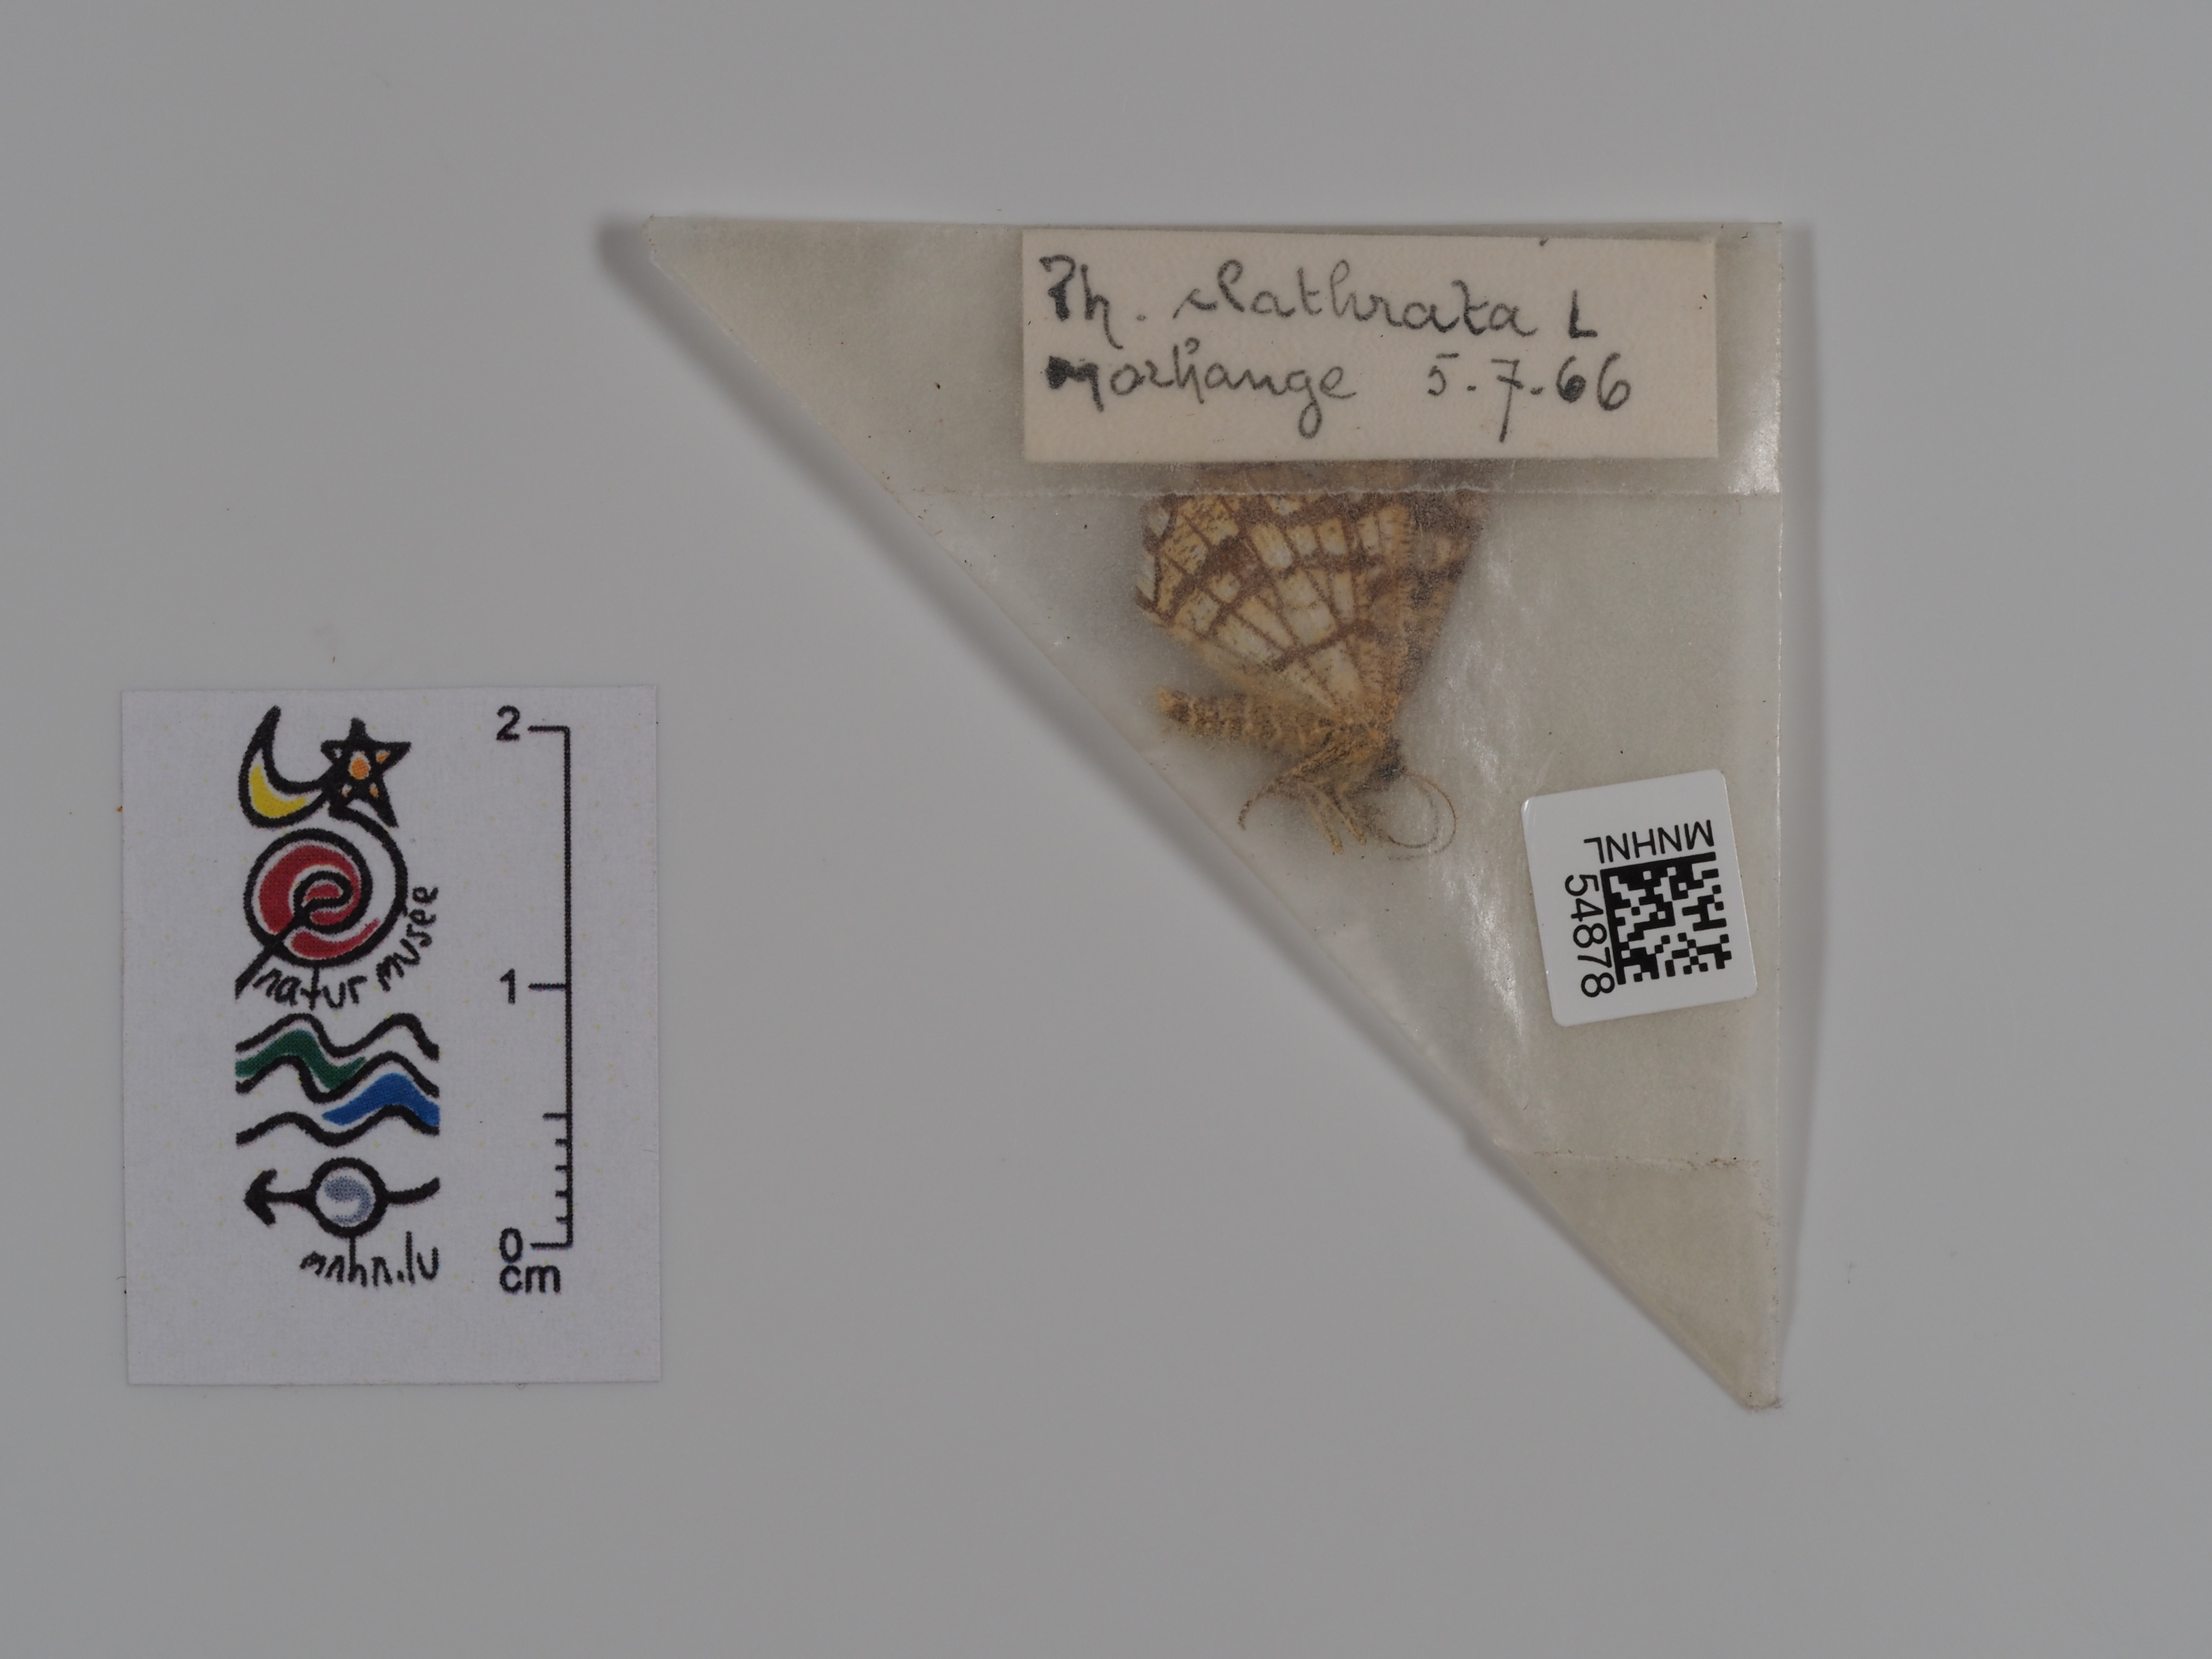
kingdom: Animalia
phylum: Arthropoda
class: Insecta
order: Lepidoptera
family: Geometridae
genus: Chiasmia
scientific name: Chiasmia clathrata
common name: Latticed heath
